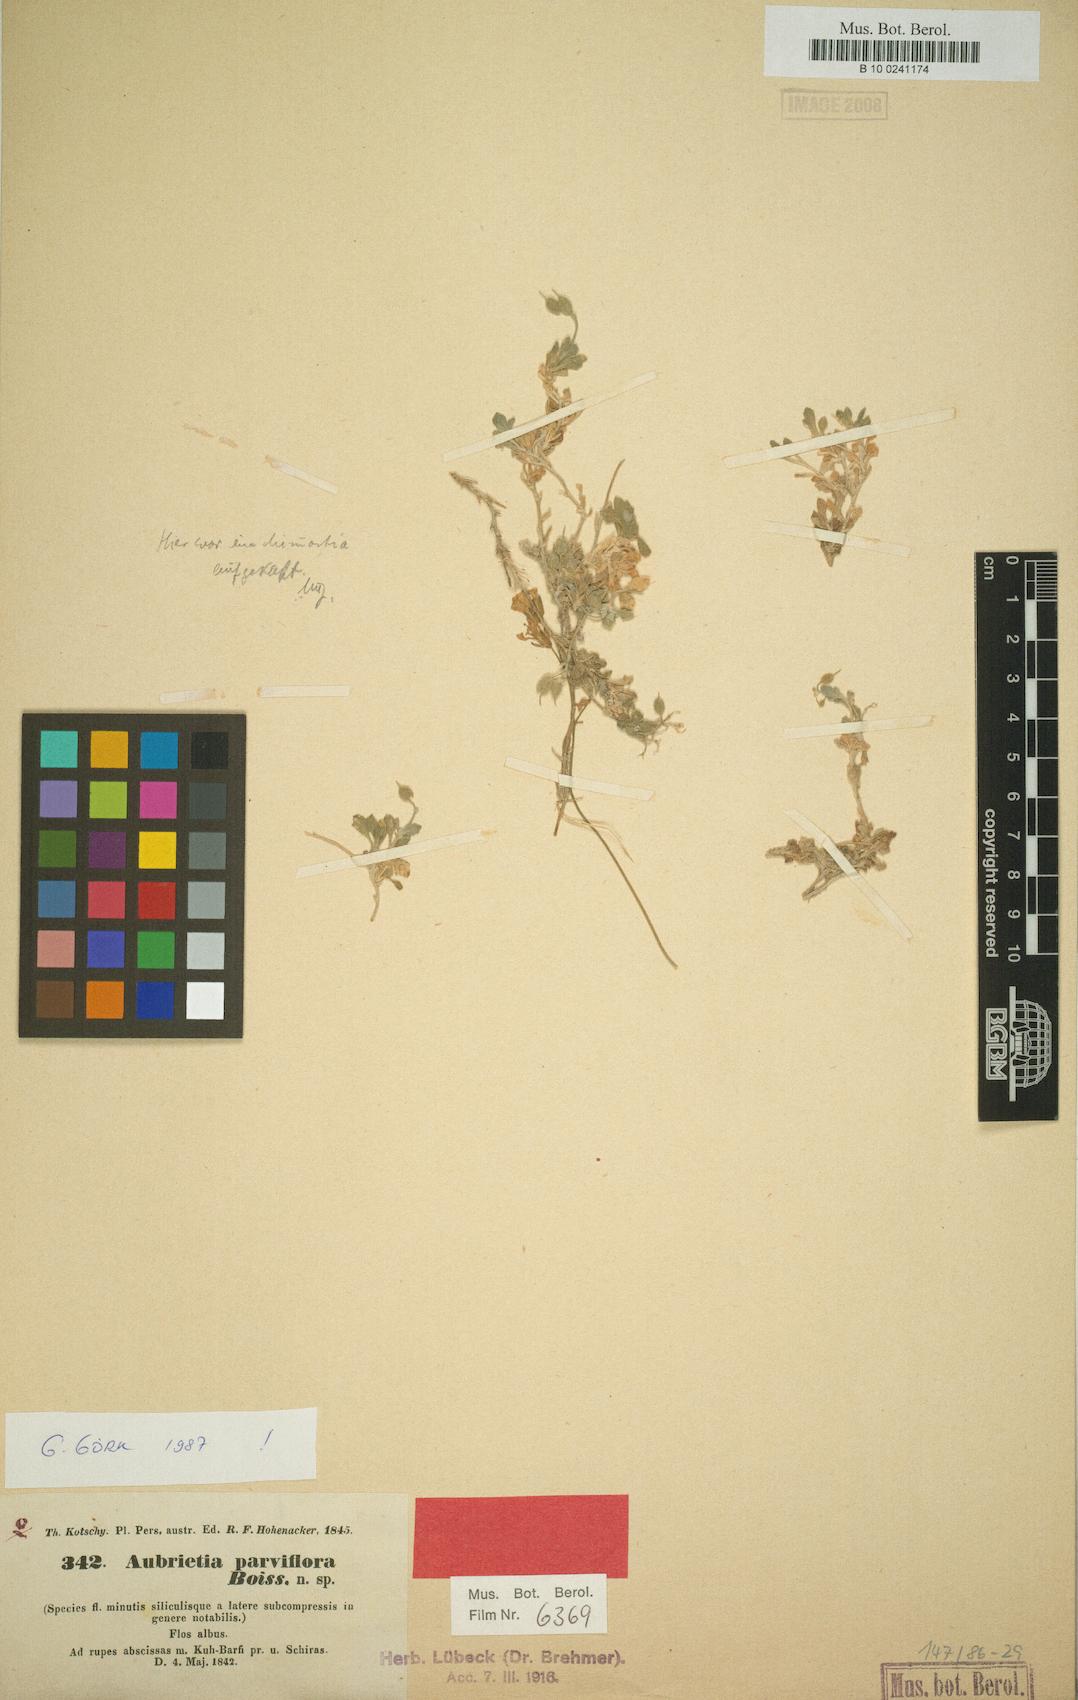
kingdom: Plantae
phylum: Tracheophyta
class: Magnoliopsida
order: Brassicales
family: Brassicaceae
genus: Aubrieta
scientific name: Aubrieta parviflora
